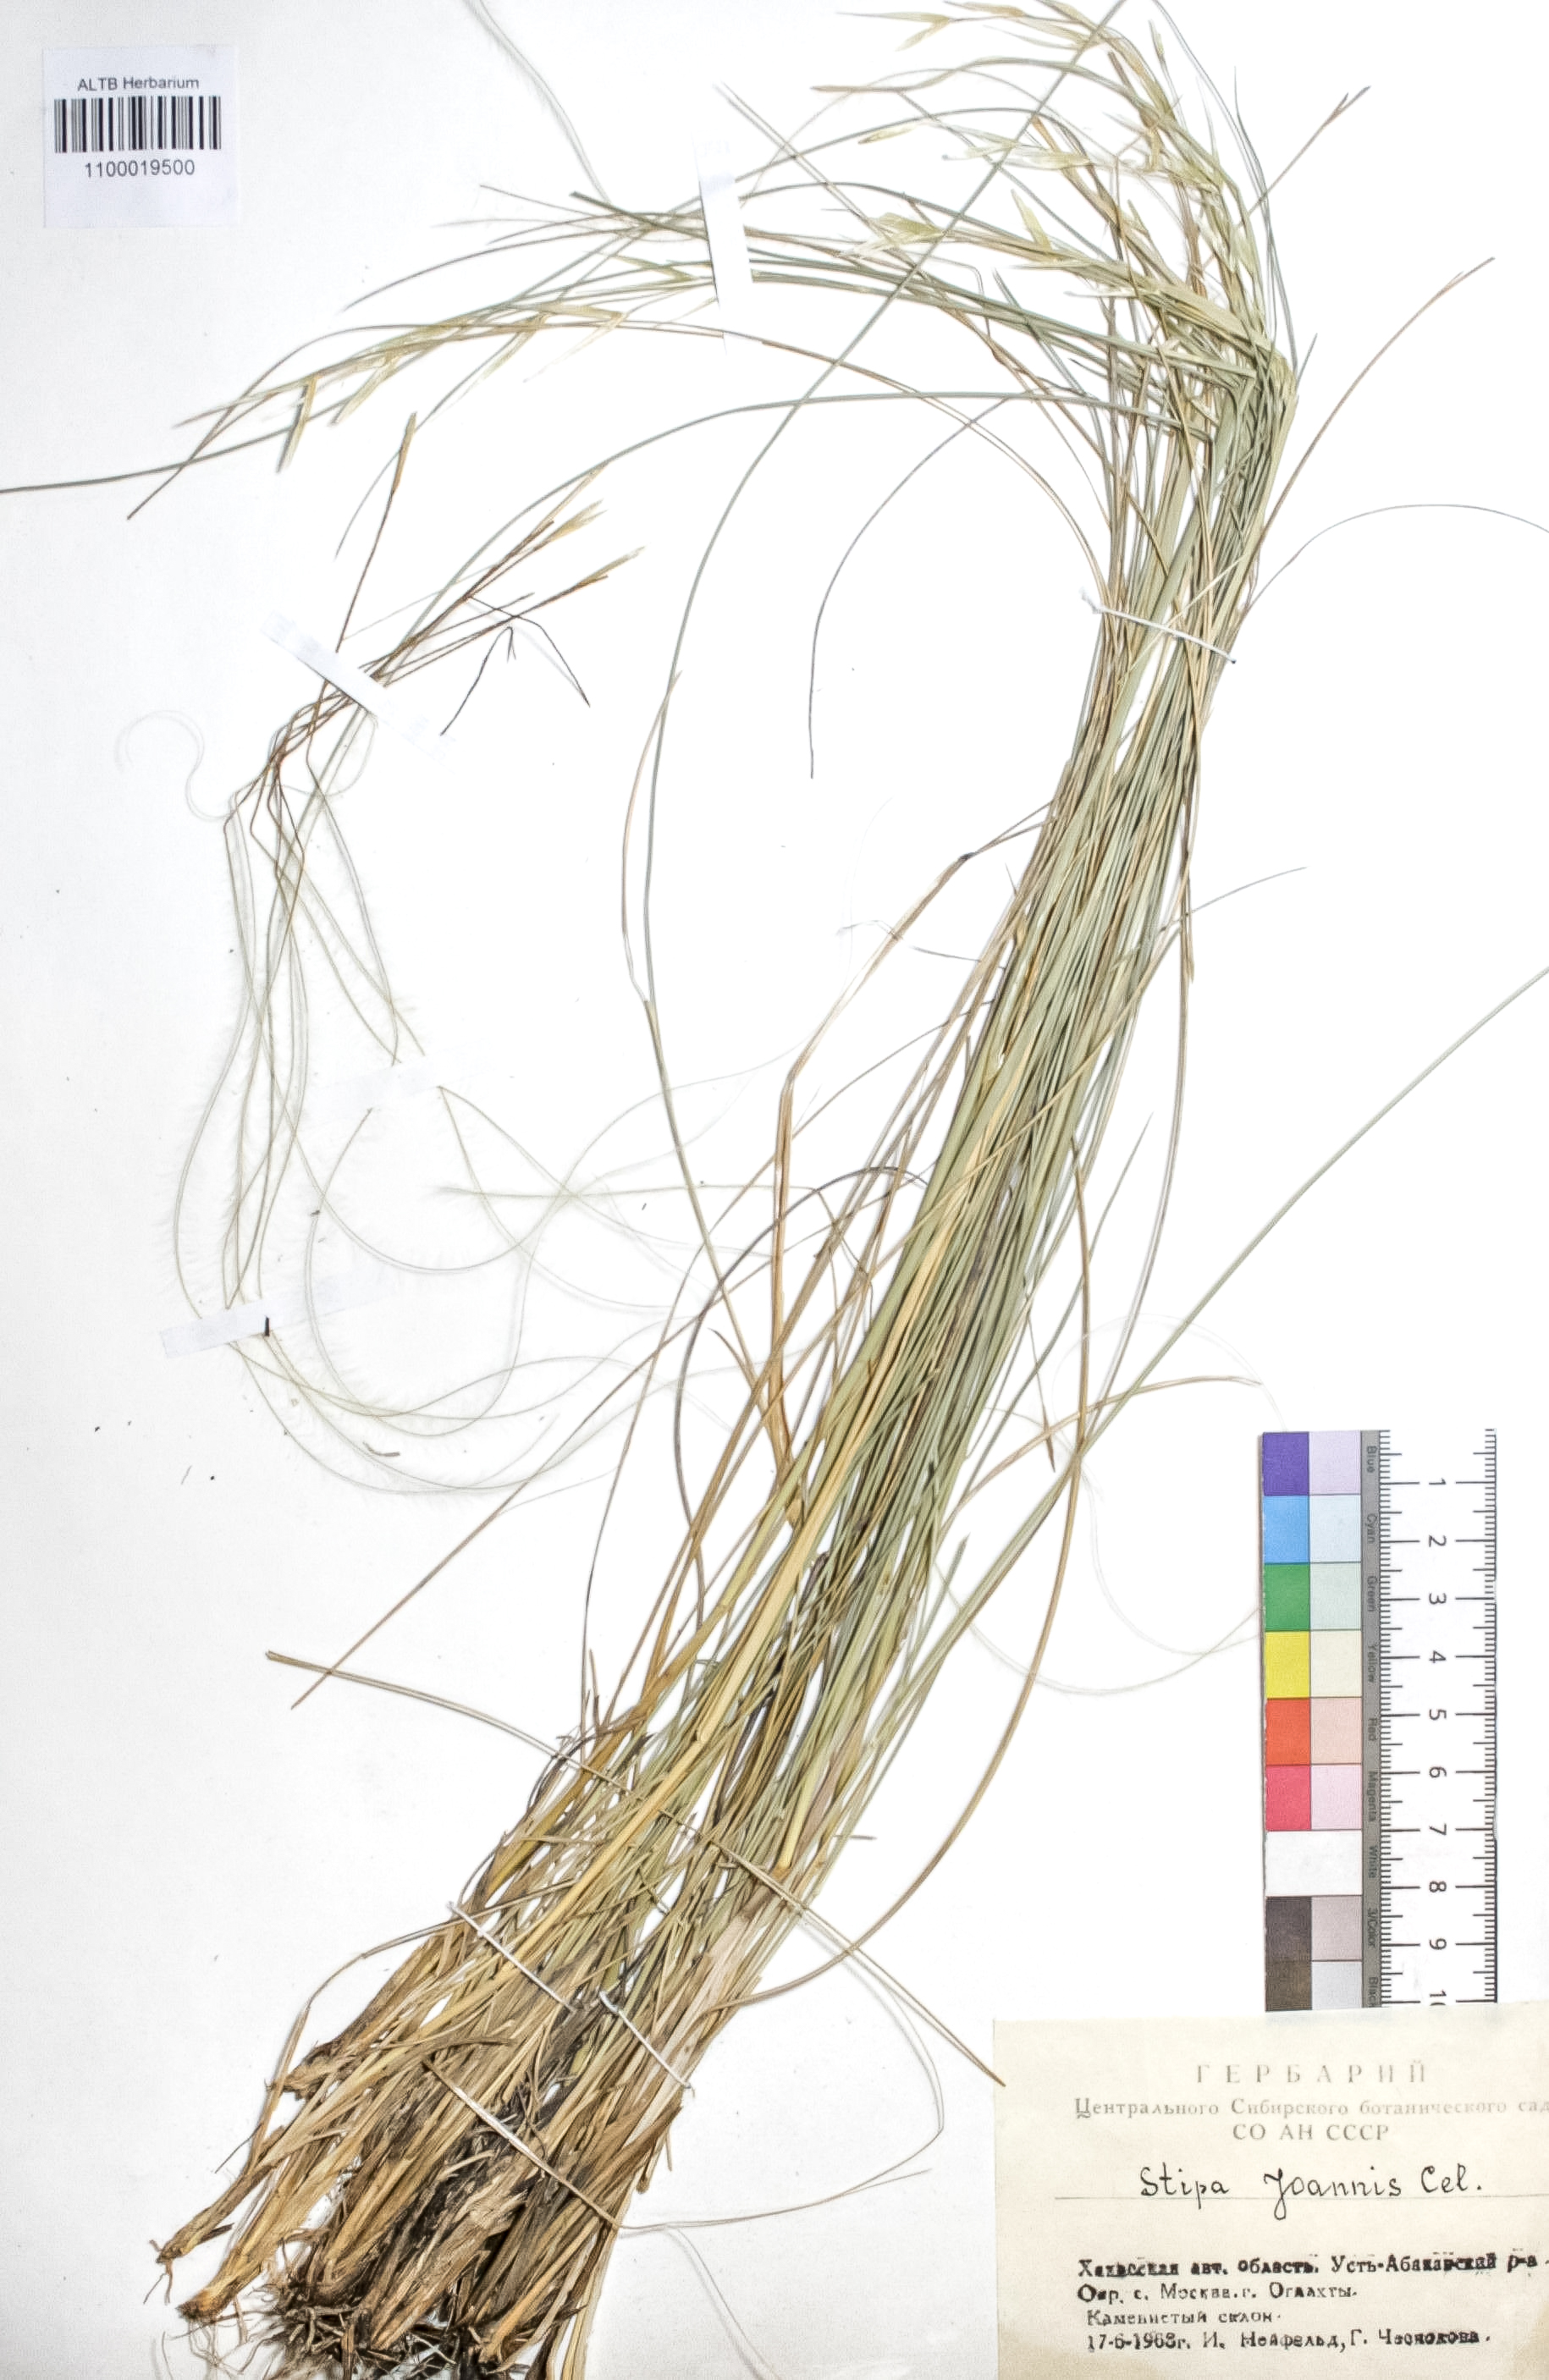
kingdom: Plantae
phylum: Tracheophyta
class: Liliopsida
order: Poales
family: Poaceae
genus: Stipa
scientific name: Stipa pennata
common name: European feather grass
